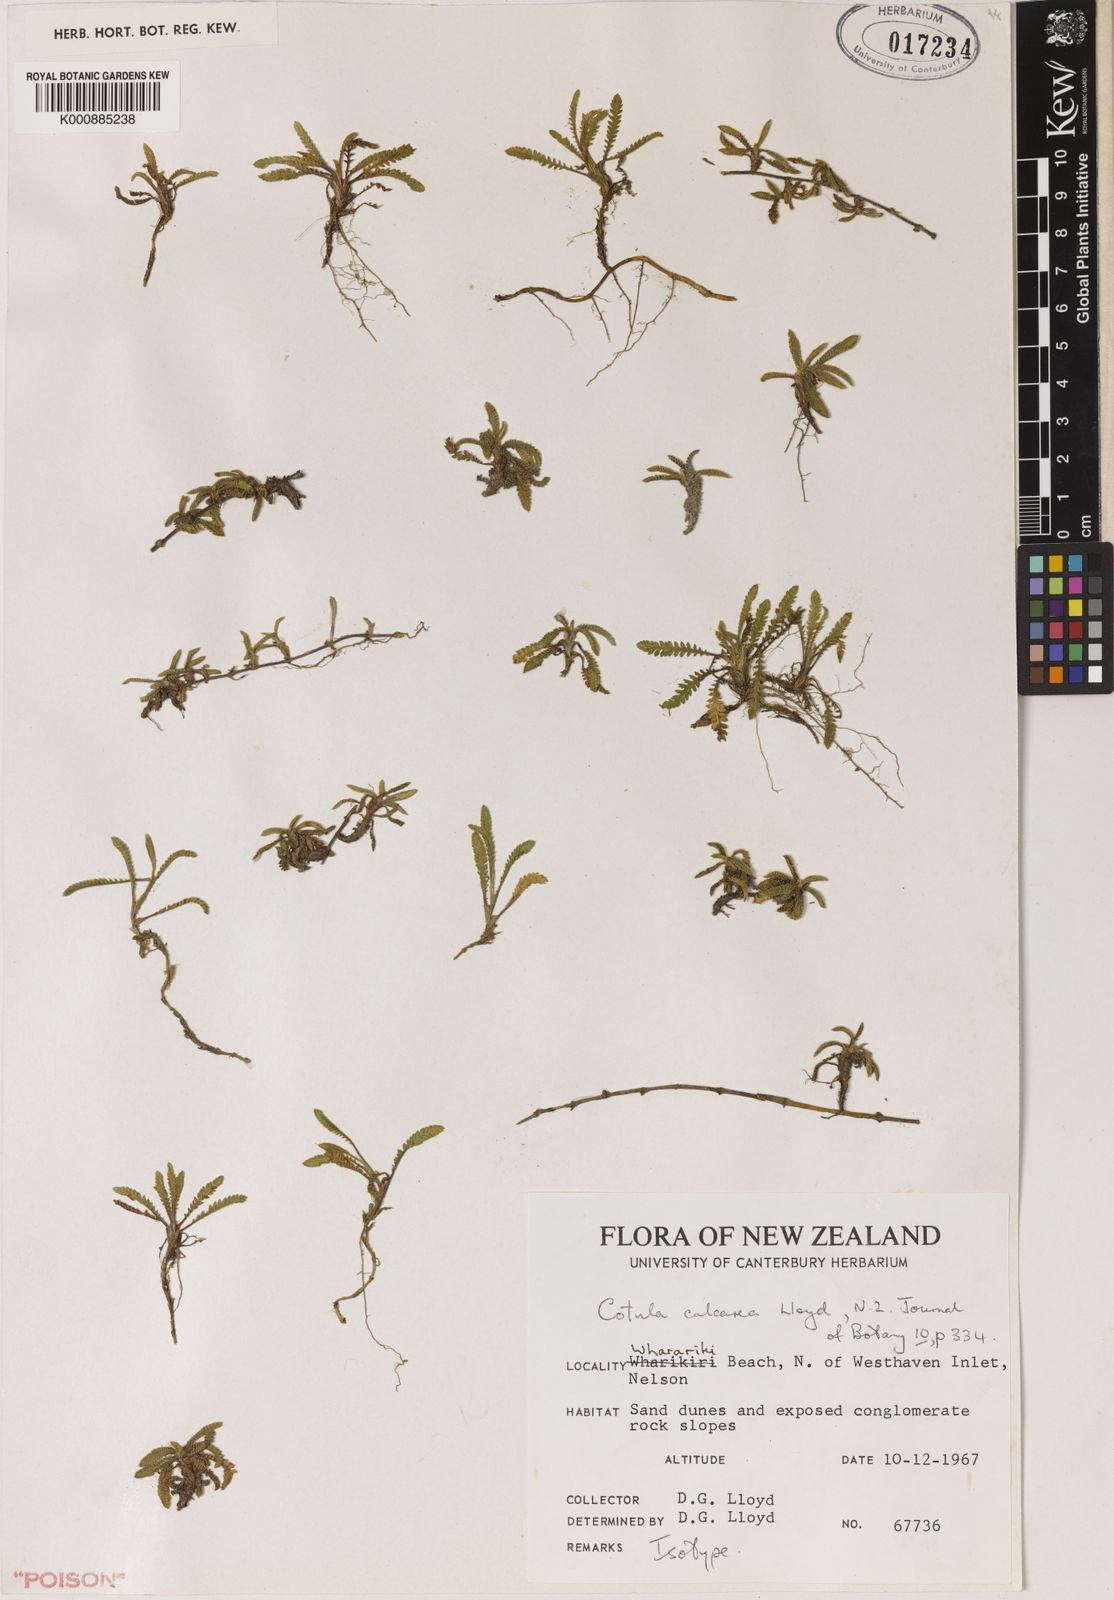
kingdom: Plantae
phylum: Tracheophyta
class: Magnoliopsida
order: Asterales
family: Asteraceae
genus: Leptinella
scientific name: Leptinella
